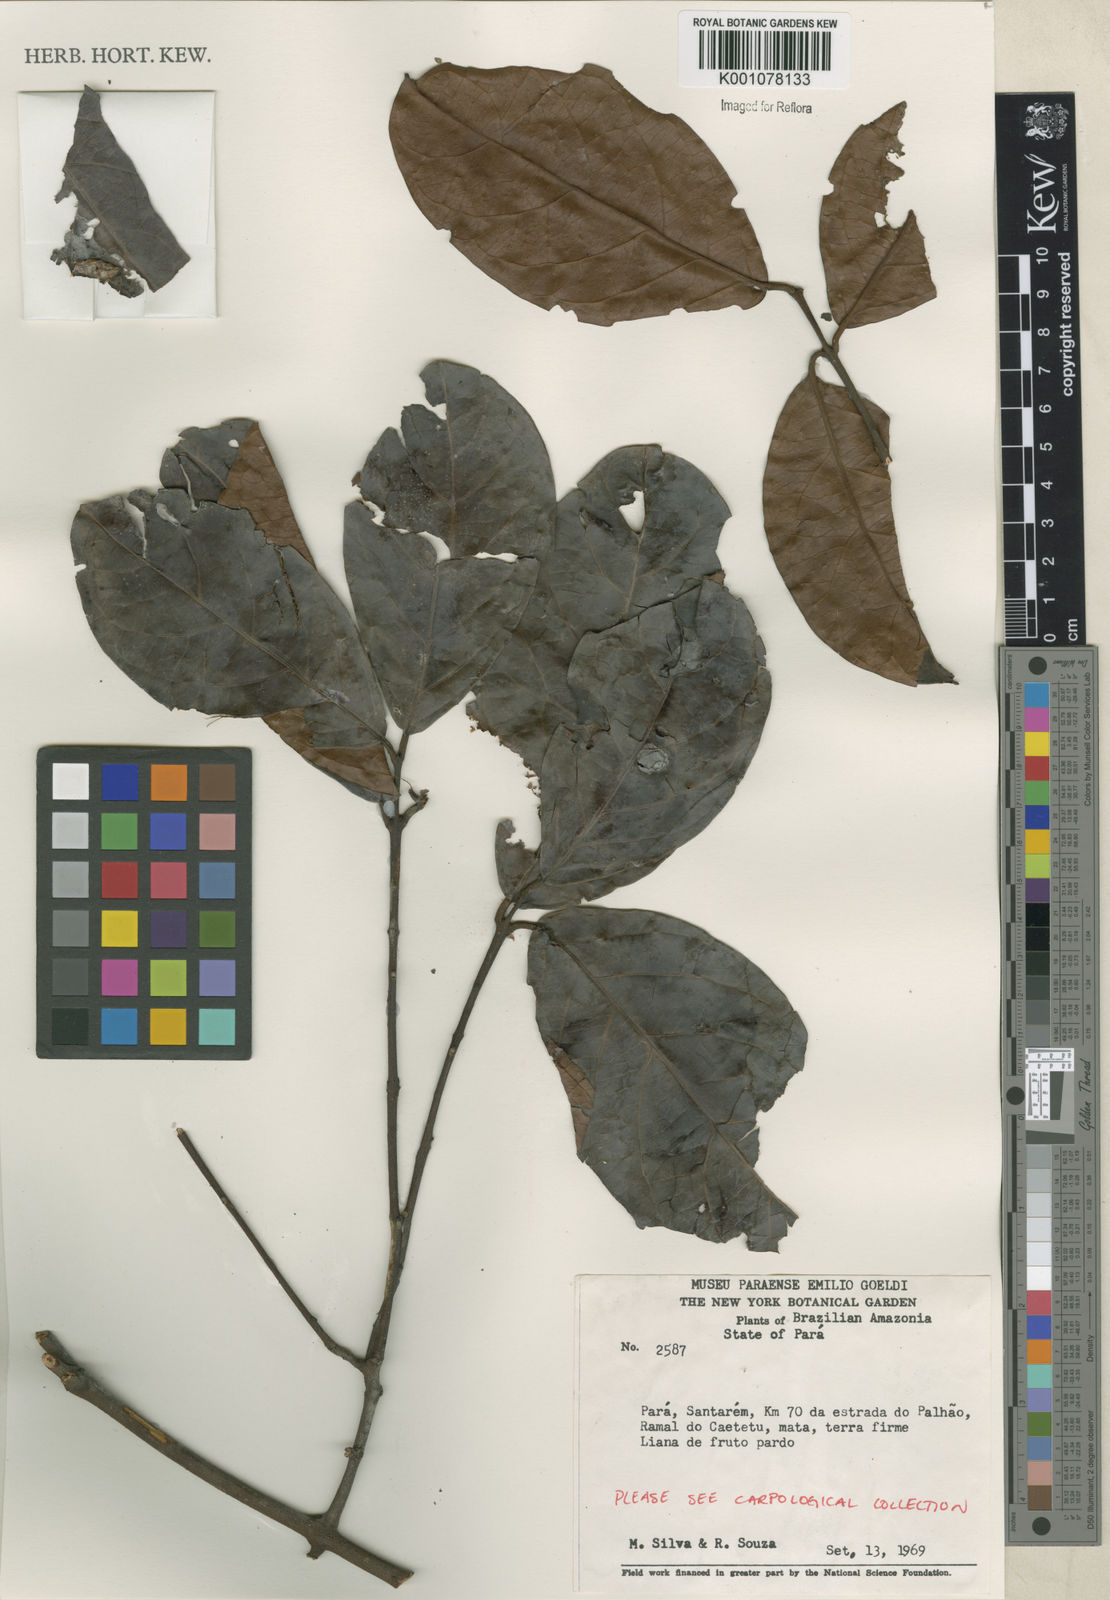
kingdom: Plantae
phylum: Tracheophyta
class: Magnoliopsida
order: Celastrales
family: Celastraceae
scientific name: Celastraceae
